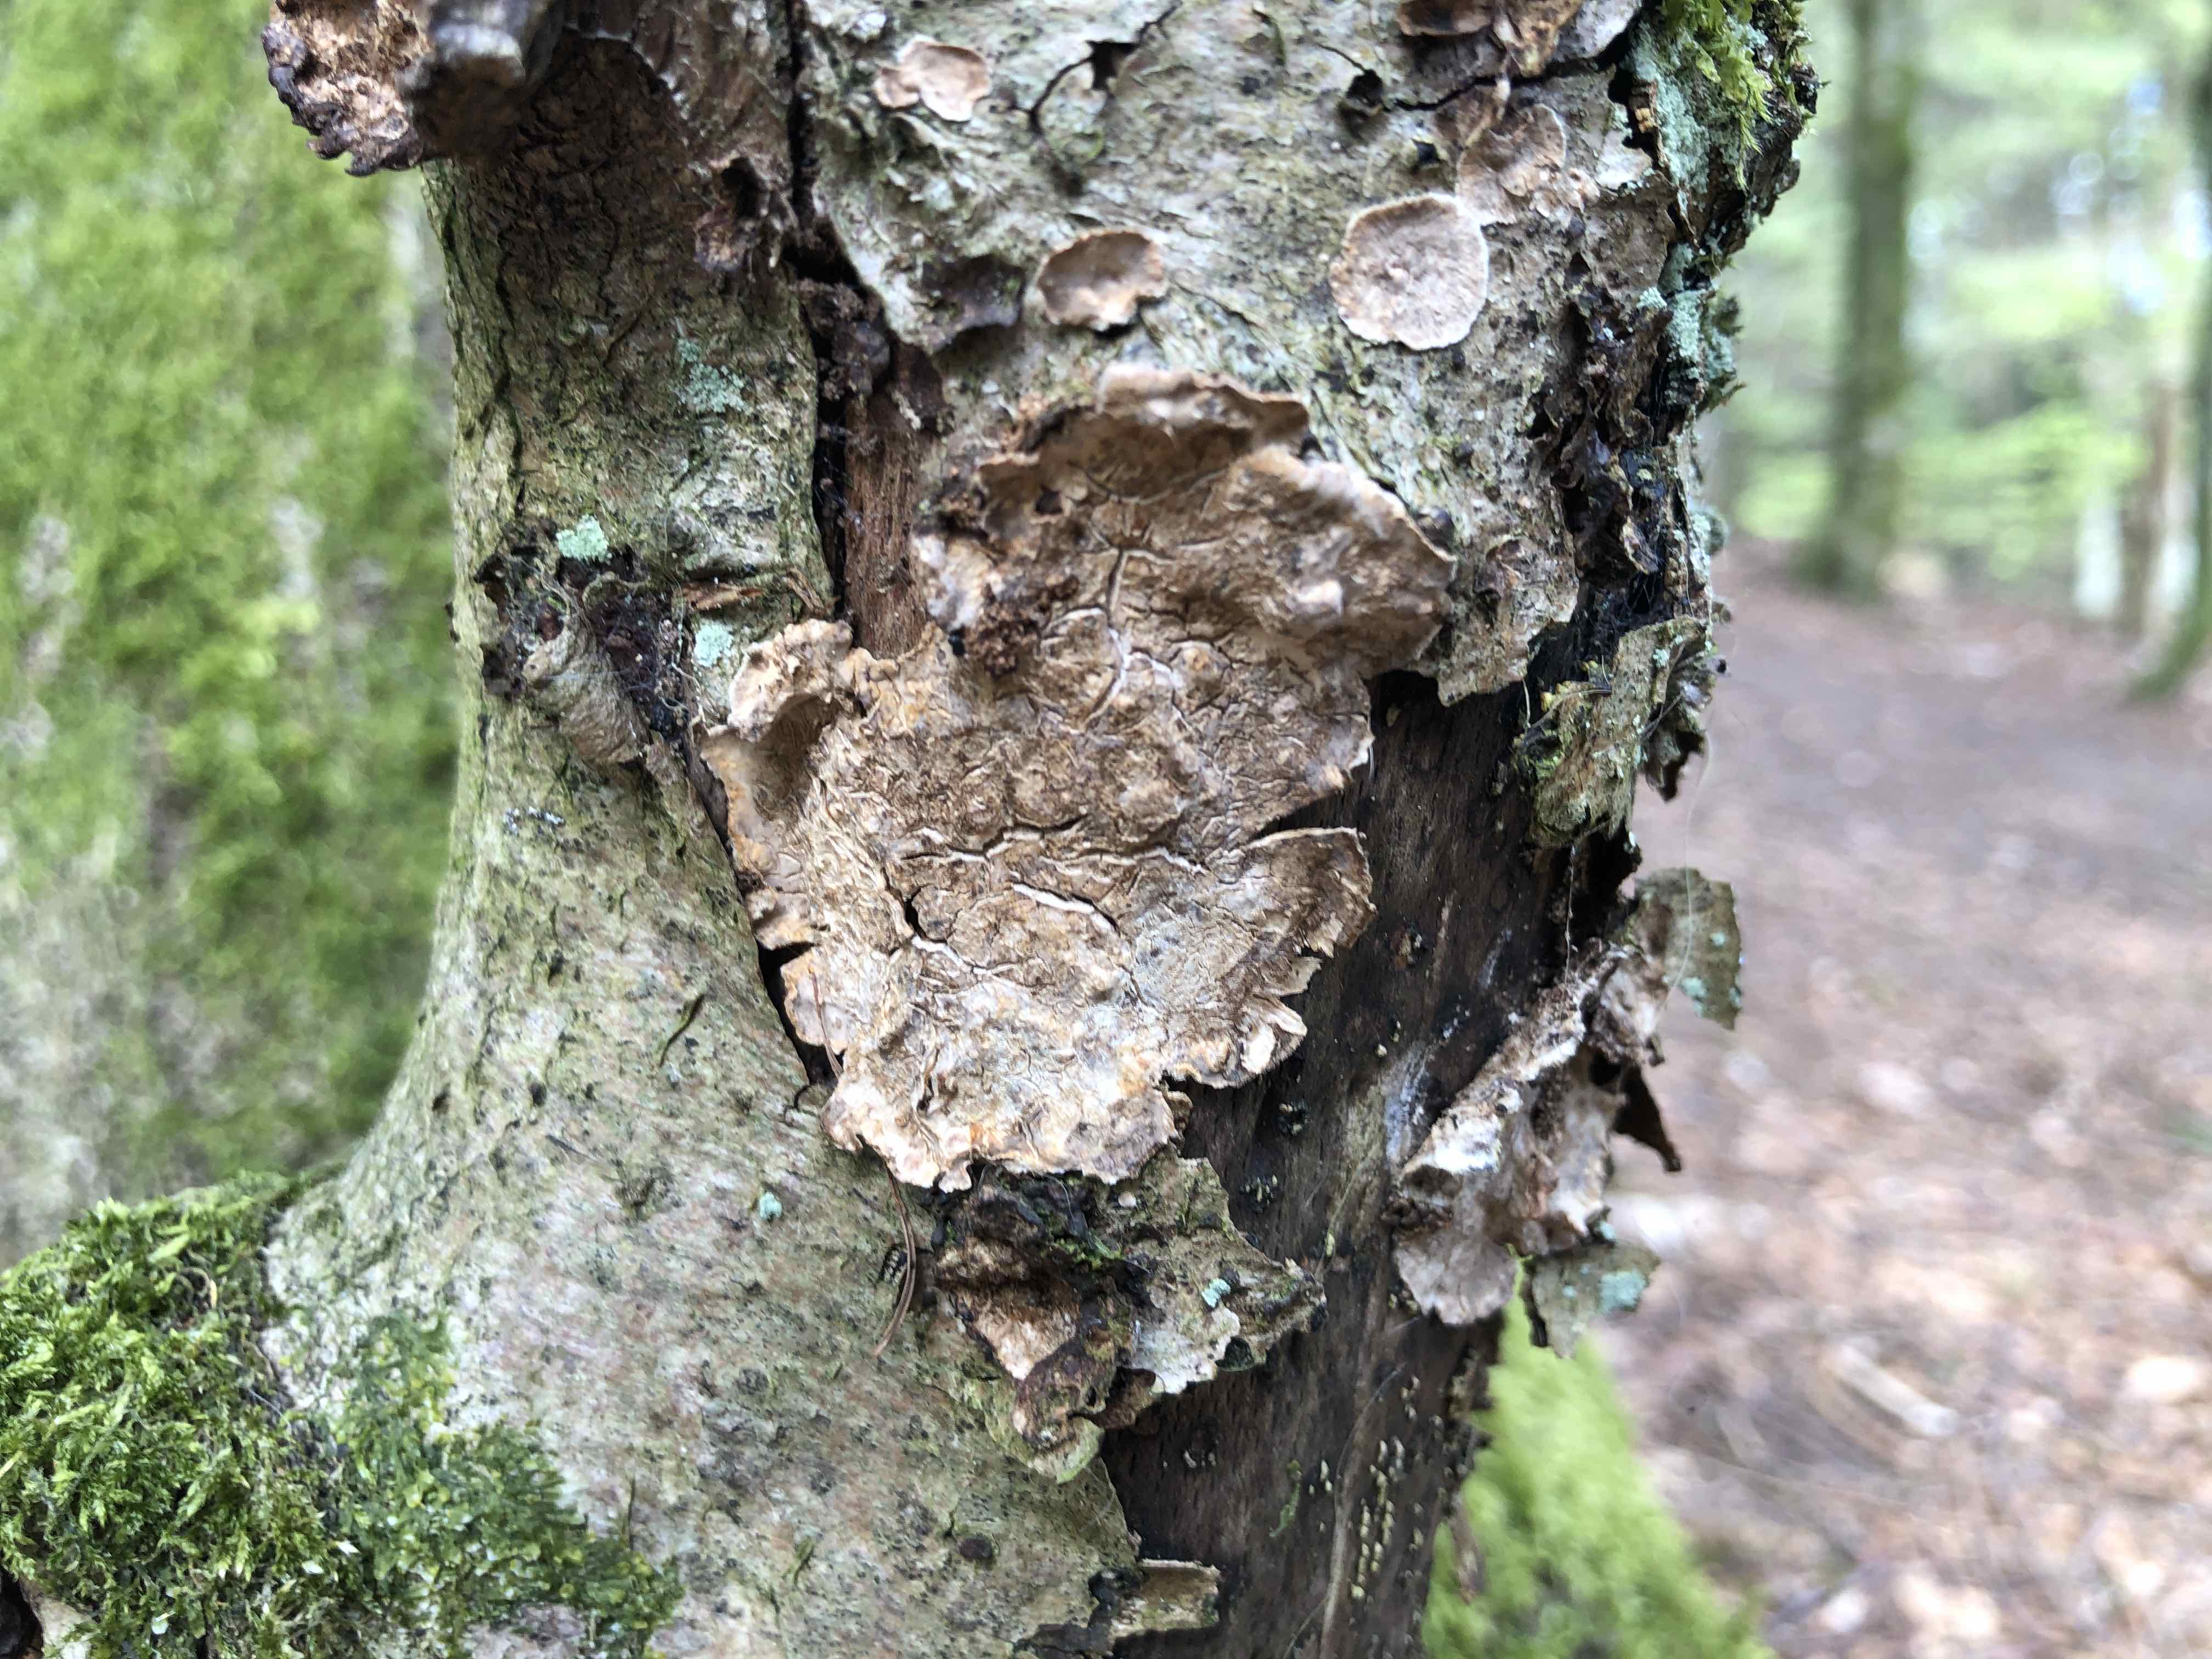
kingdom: Fungi
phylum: Basidiomycota
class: Agaricomycetes
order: Russulales
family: Stereaceae
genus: Stereum
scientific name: Stereum rugosum
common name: rynket lædersvamp
